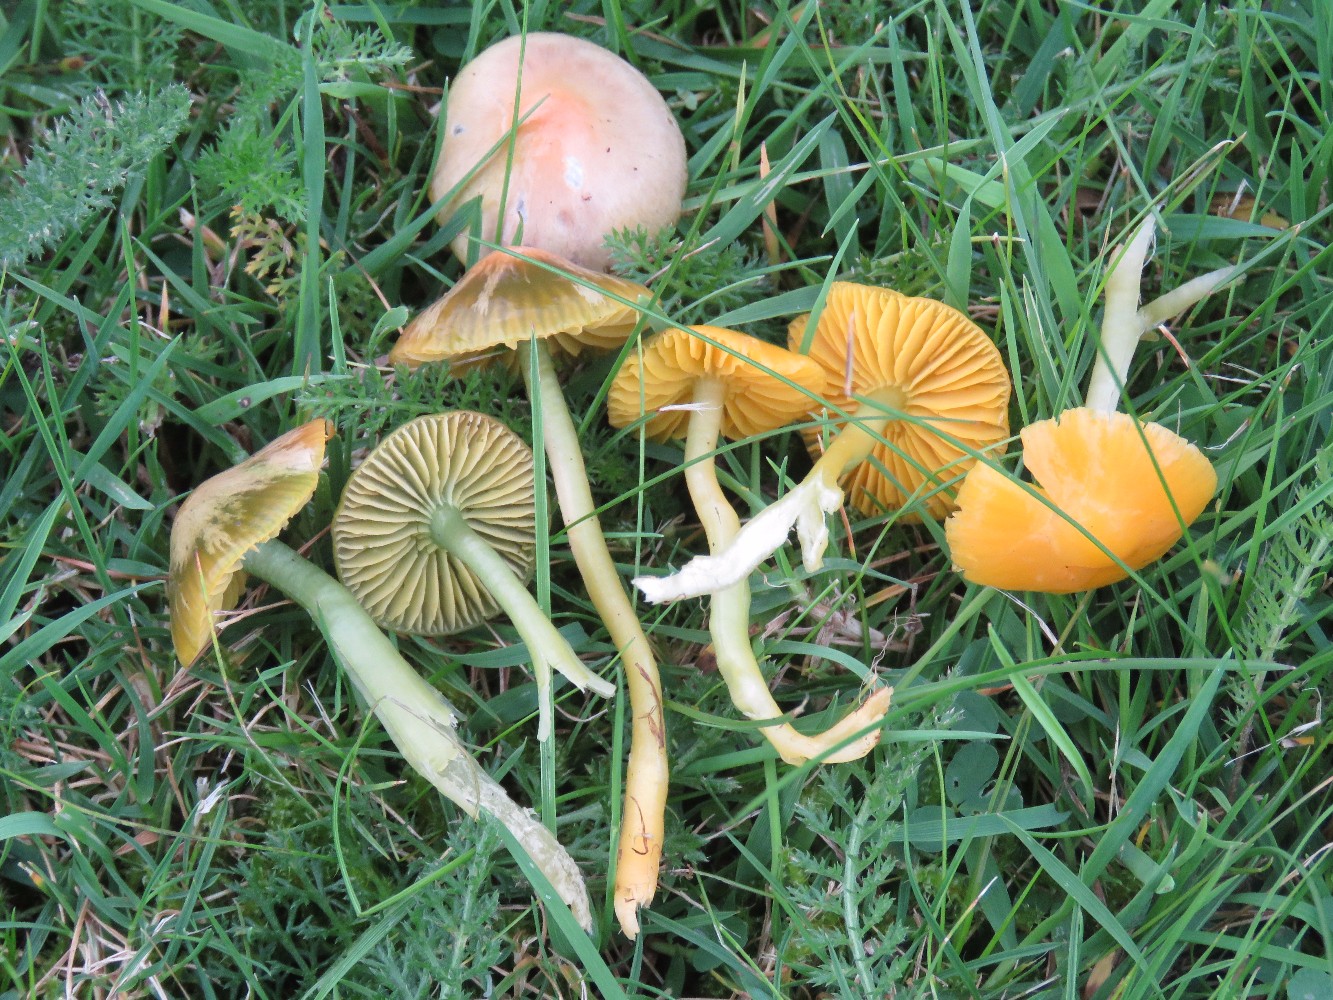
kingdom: Fungi
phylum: Basidiomycota
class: Agaricomycetes
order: Agaricales
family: Hygrophoraceae
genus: Gliophorus
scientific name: Gliophorus psittacinus
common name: papegøje-vokshat
